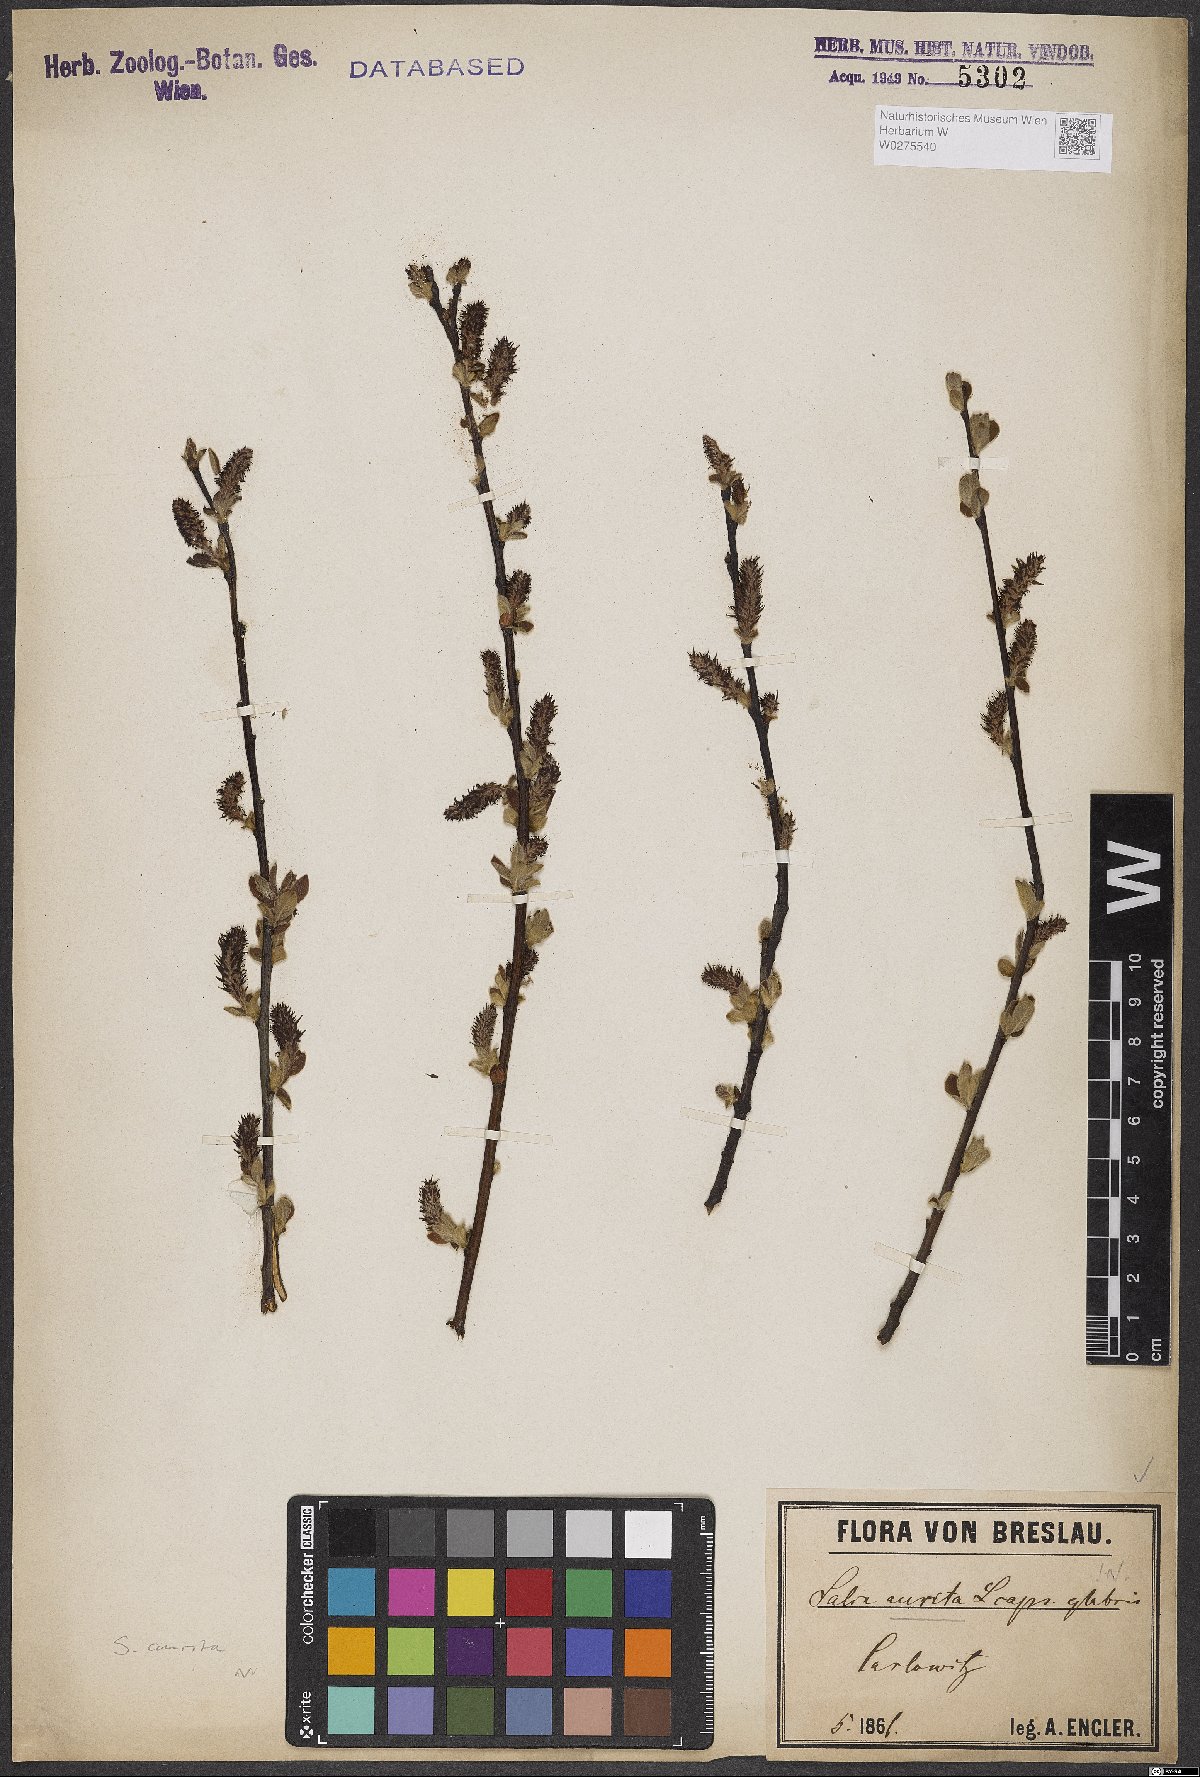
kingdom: Plantae
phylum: Tracheophyta
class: Magnoliopsida
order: Malpighiales
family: Salicaceae
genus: Salix
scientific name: Salix aurita
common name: Eared willow
